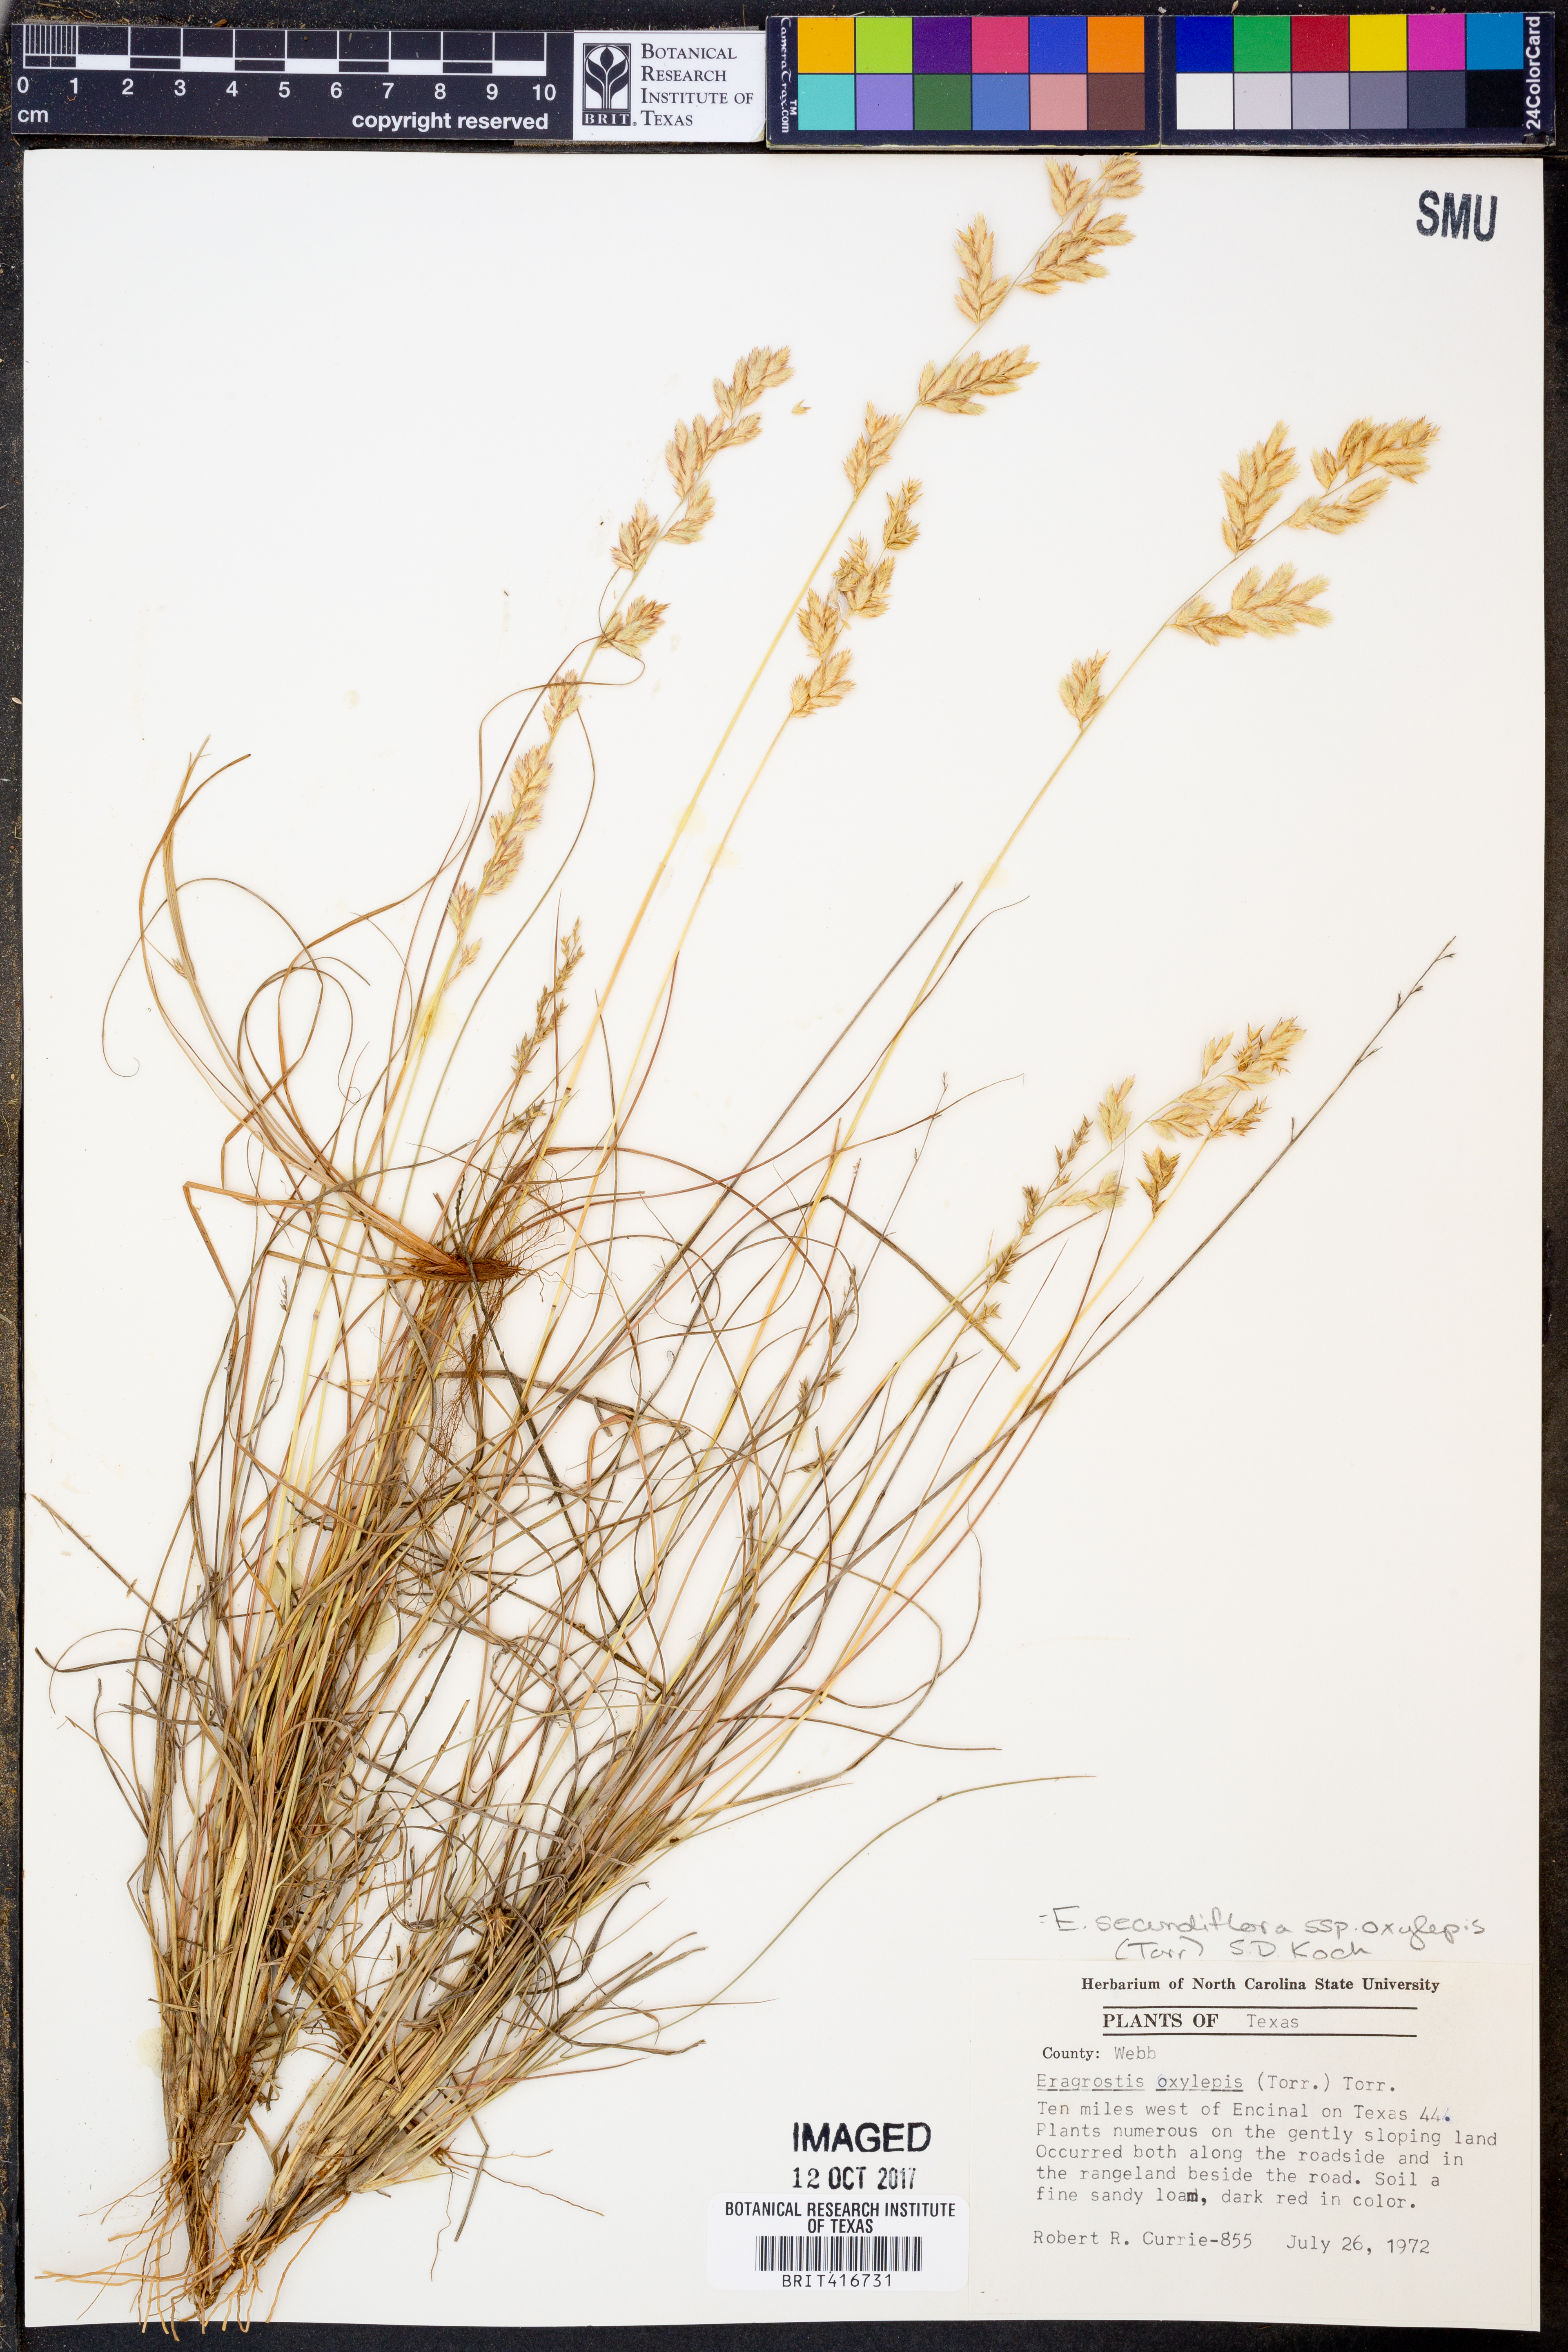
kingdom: Plantae
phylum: Tracheophyta
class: Liliopsida
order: Poales
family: Poaceae
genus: Eragrostis
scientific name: Eragrostis secundiflora
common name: Red love grass
